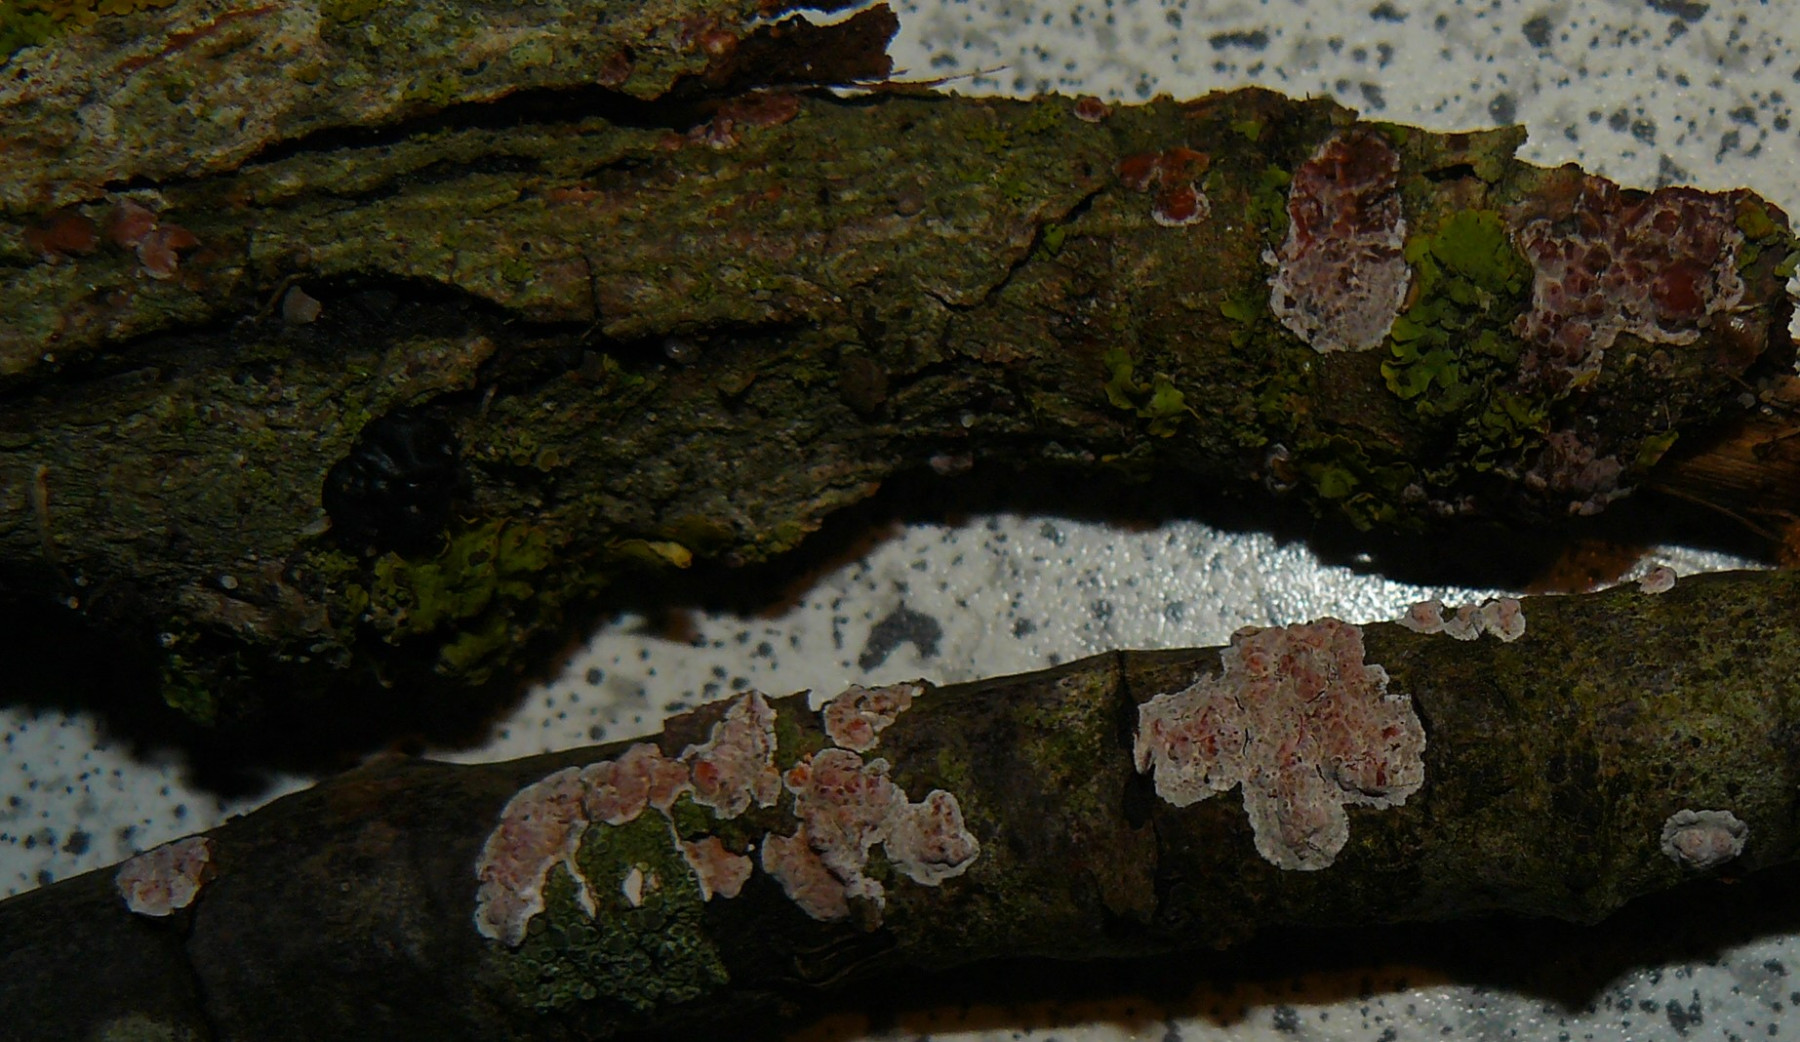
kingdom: Fungi
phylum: Basidiomycota
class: Agaricomycetes
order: Russulales
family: Peniophoraceae
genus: Peniophora
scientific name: Peniophora polygonia
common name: polygon-voksskind
